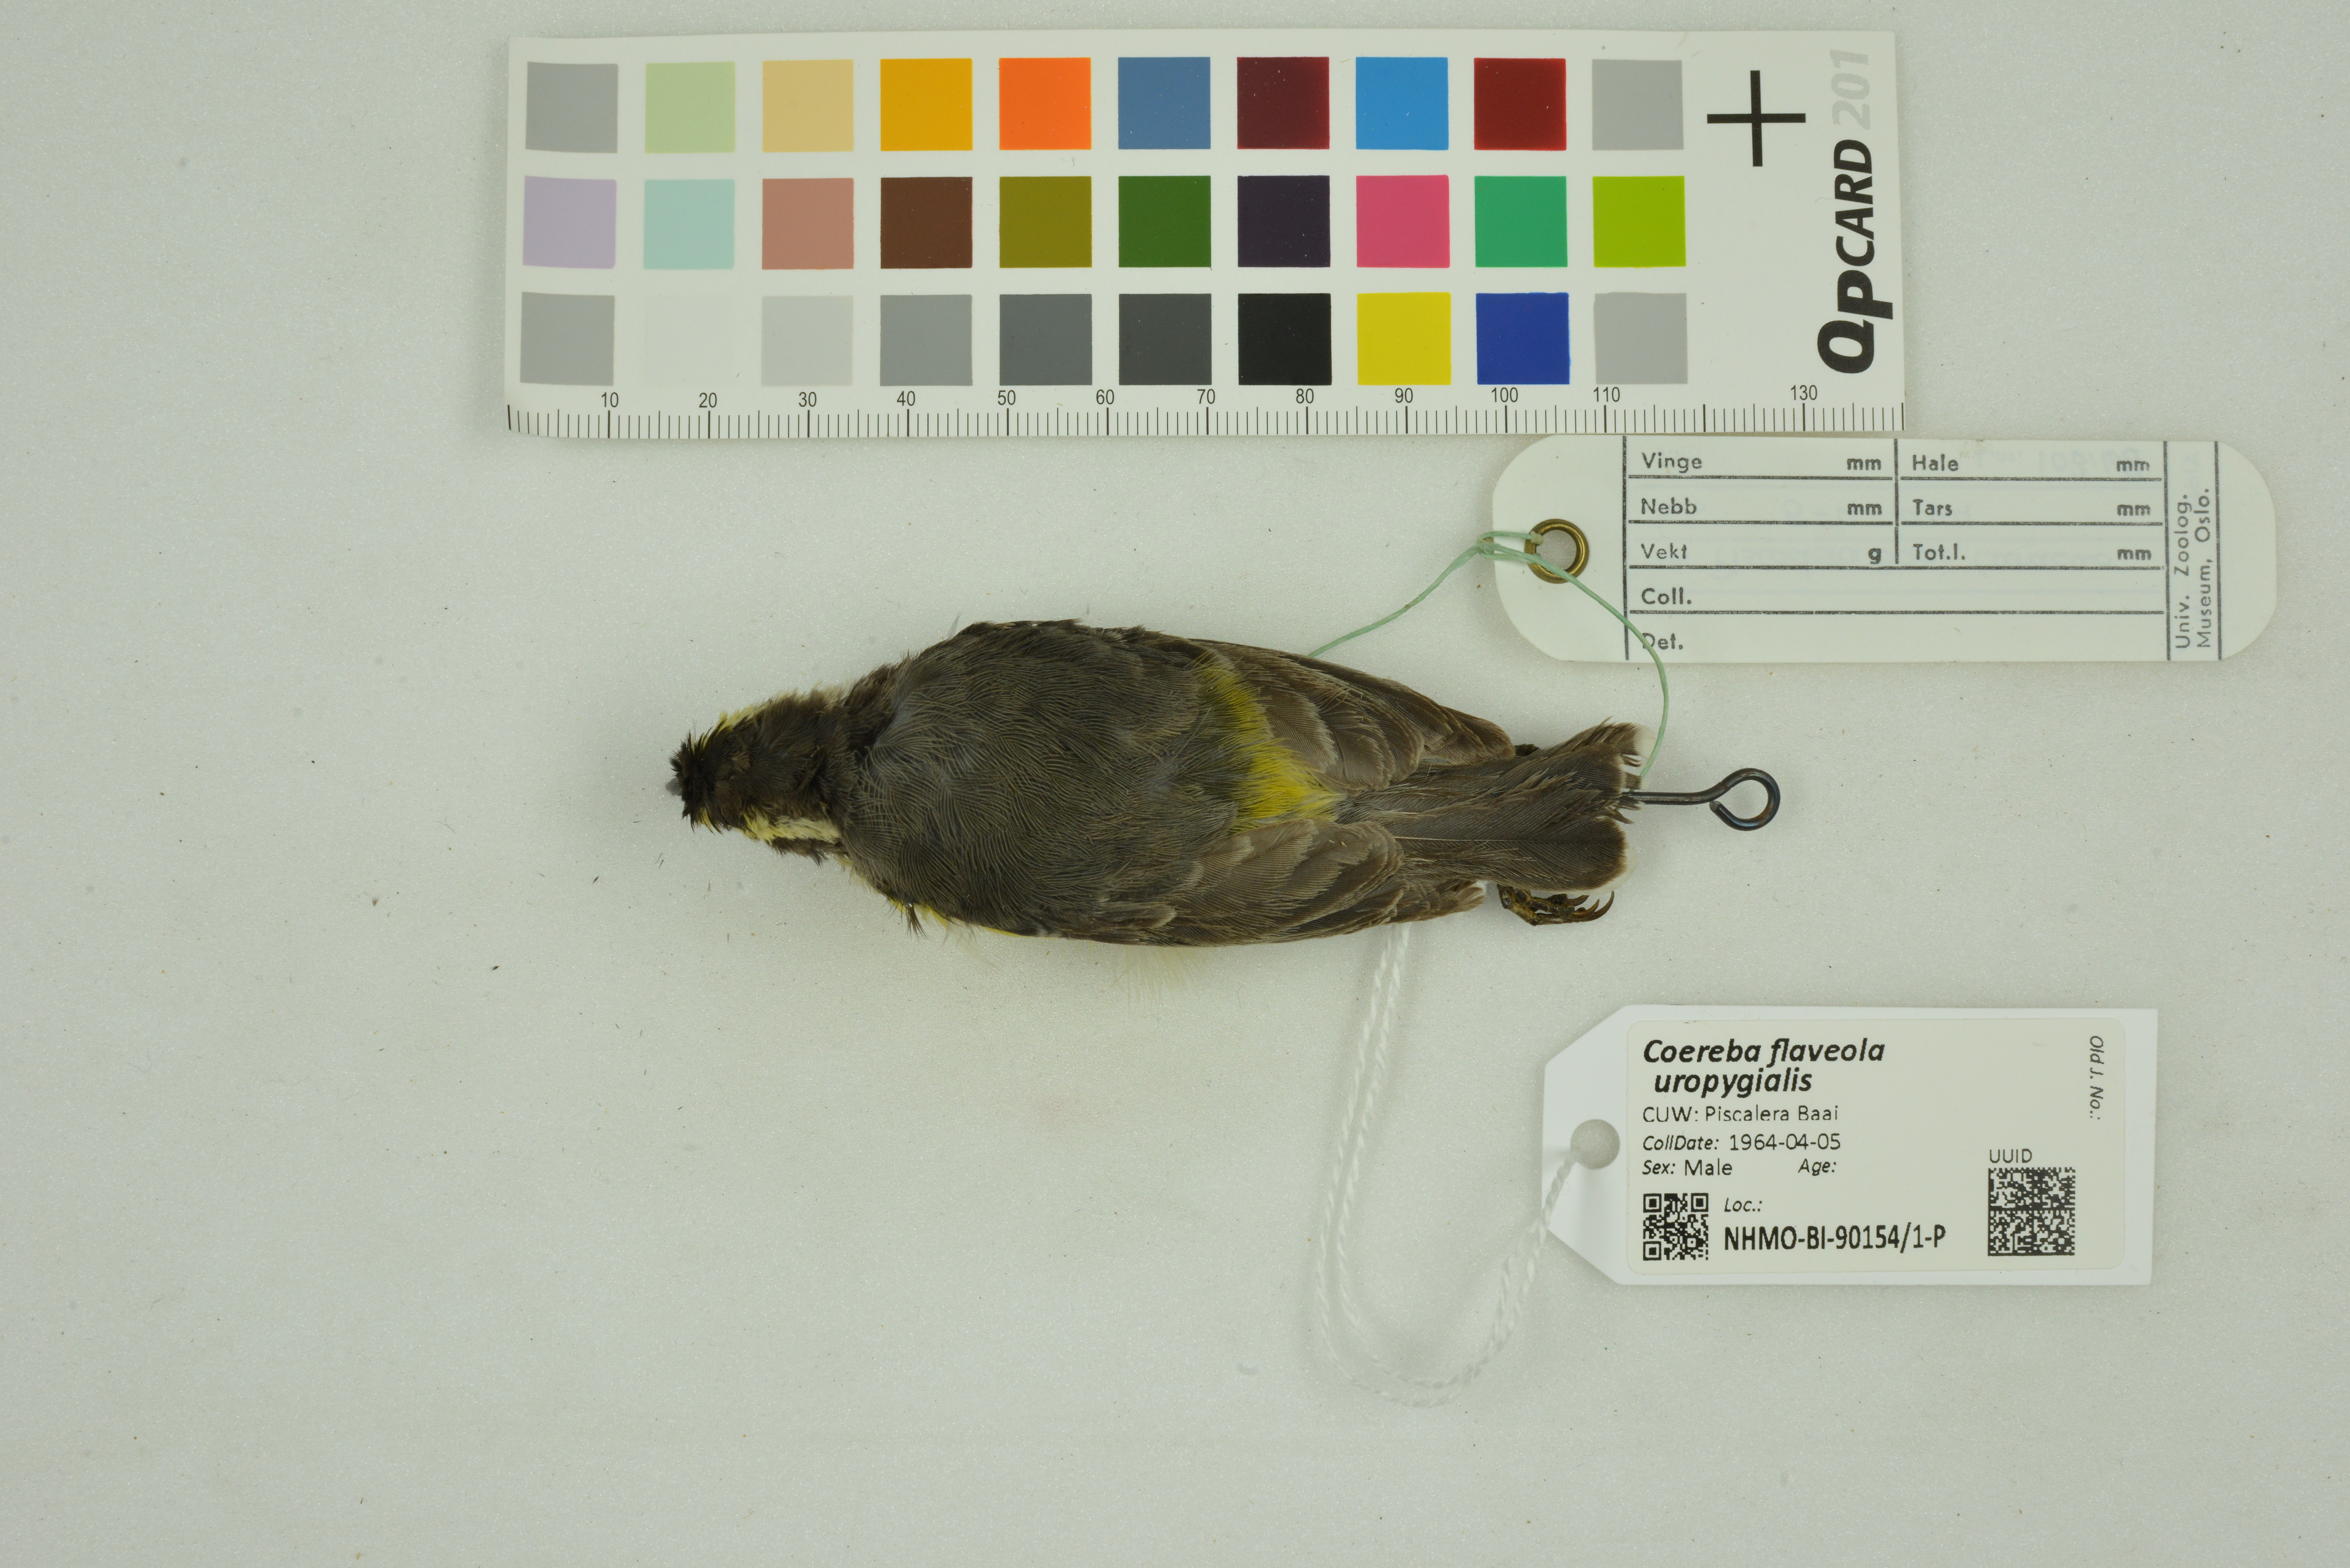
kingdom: Animalia
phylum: Chordata
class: Aves
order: Passeriformes
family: Thraupidae
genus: Coereba
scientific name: Coereba flaveola
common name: Bananaquit
